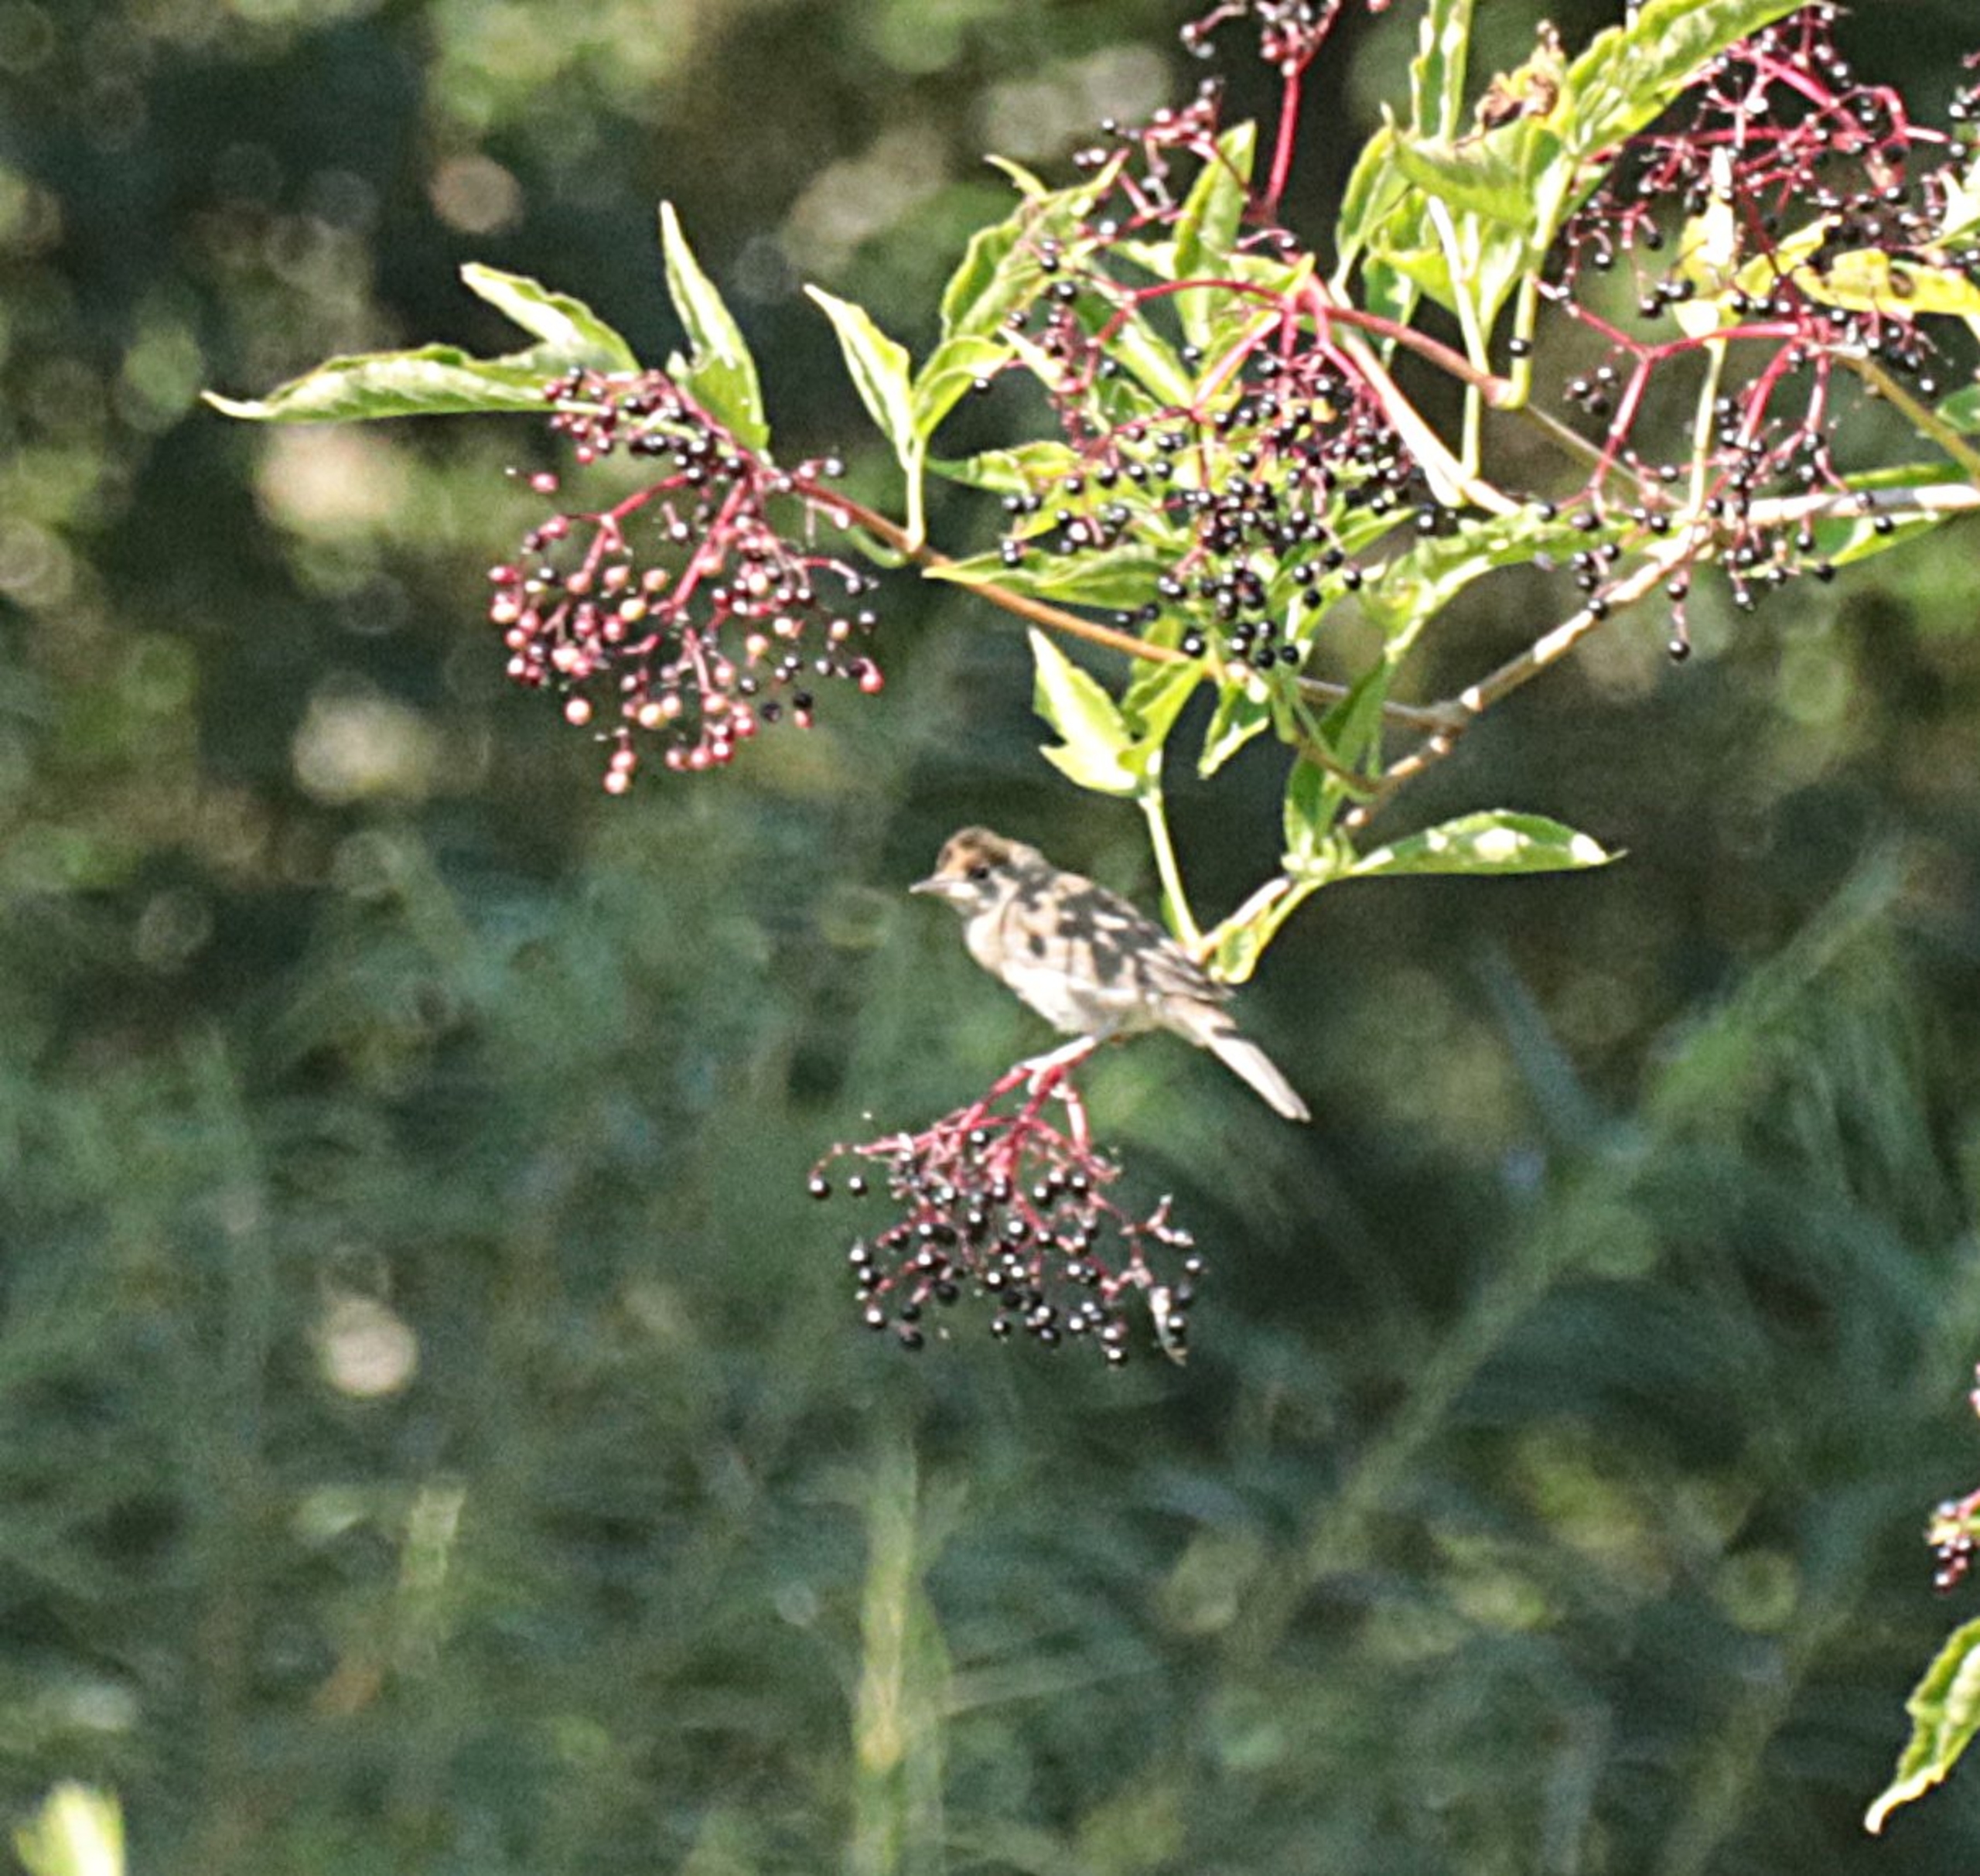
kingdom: Animalia
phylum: Chordata
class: Aves
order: Passeriformes
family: Sylviidae
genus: Sylvia
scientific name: Sylvia atricapilla
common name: Munk
